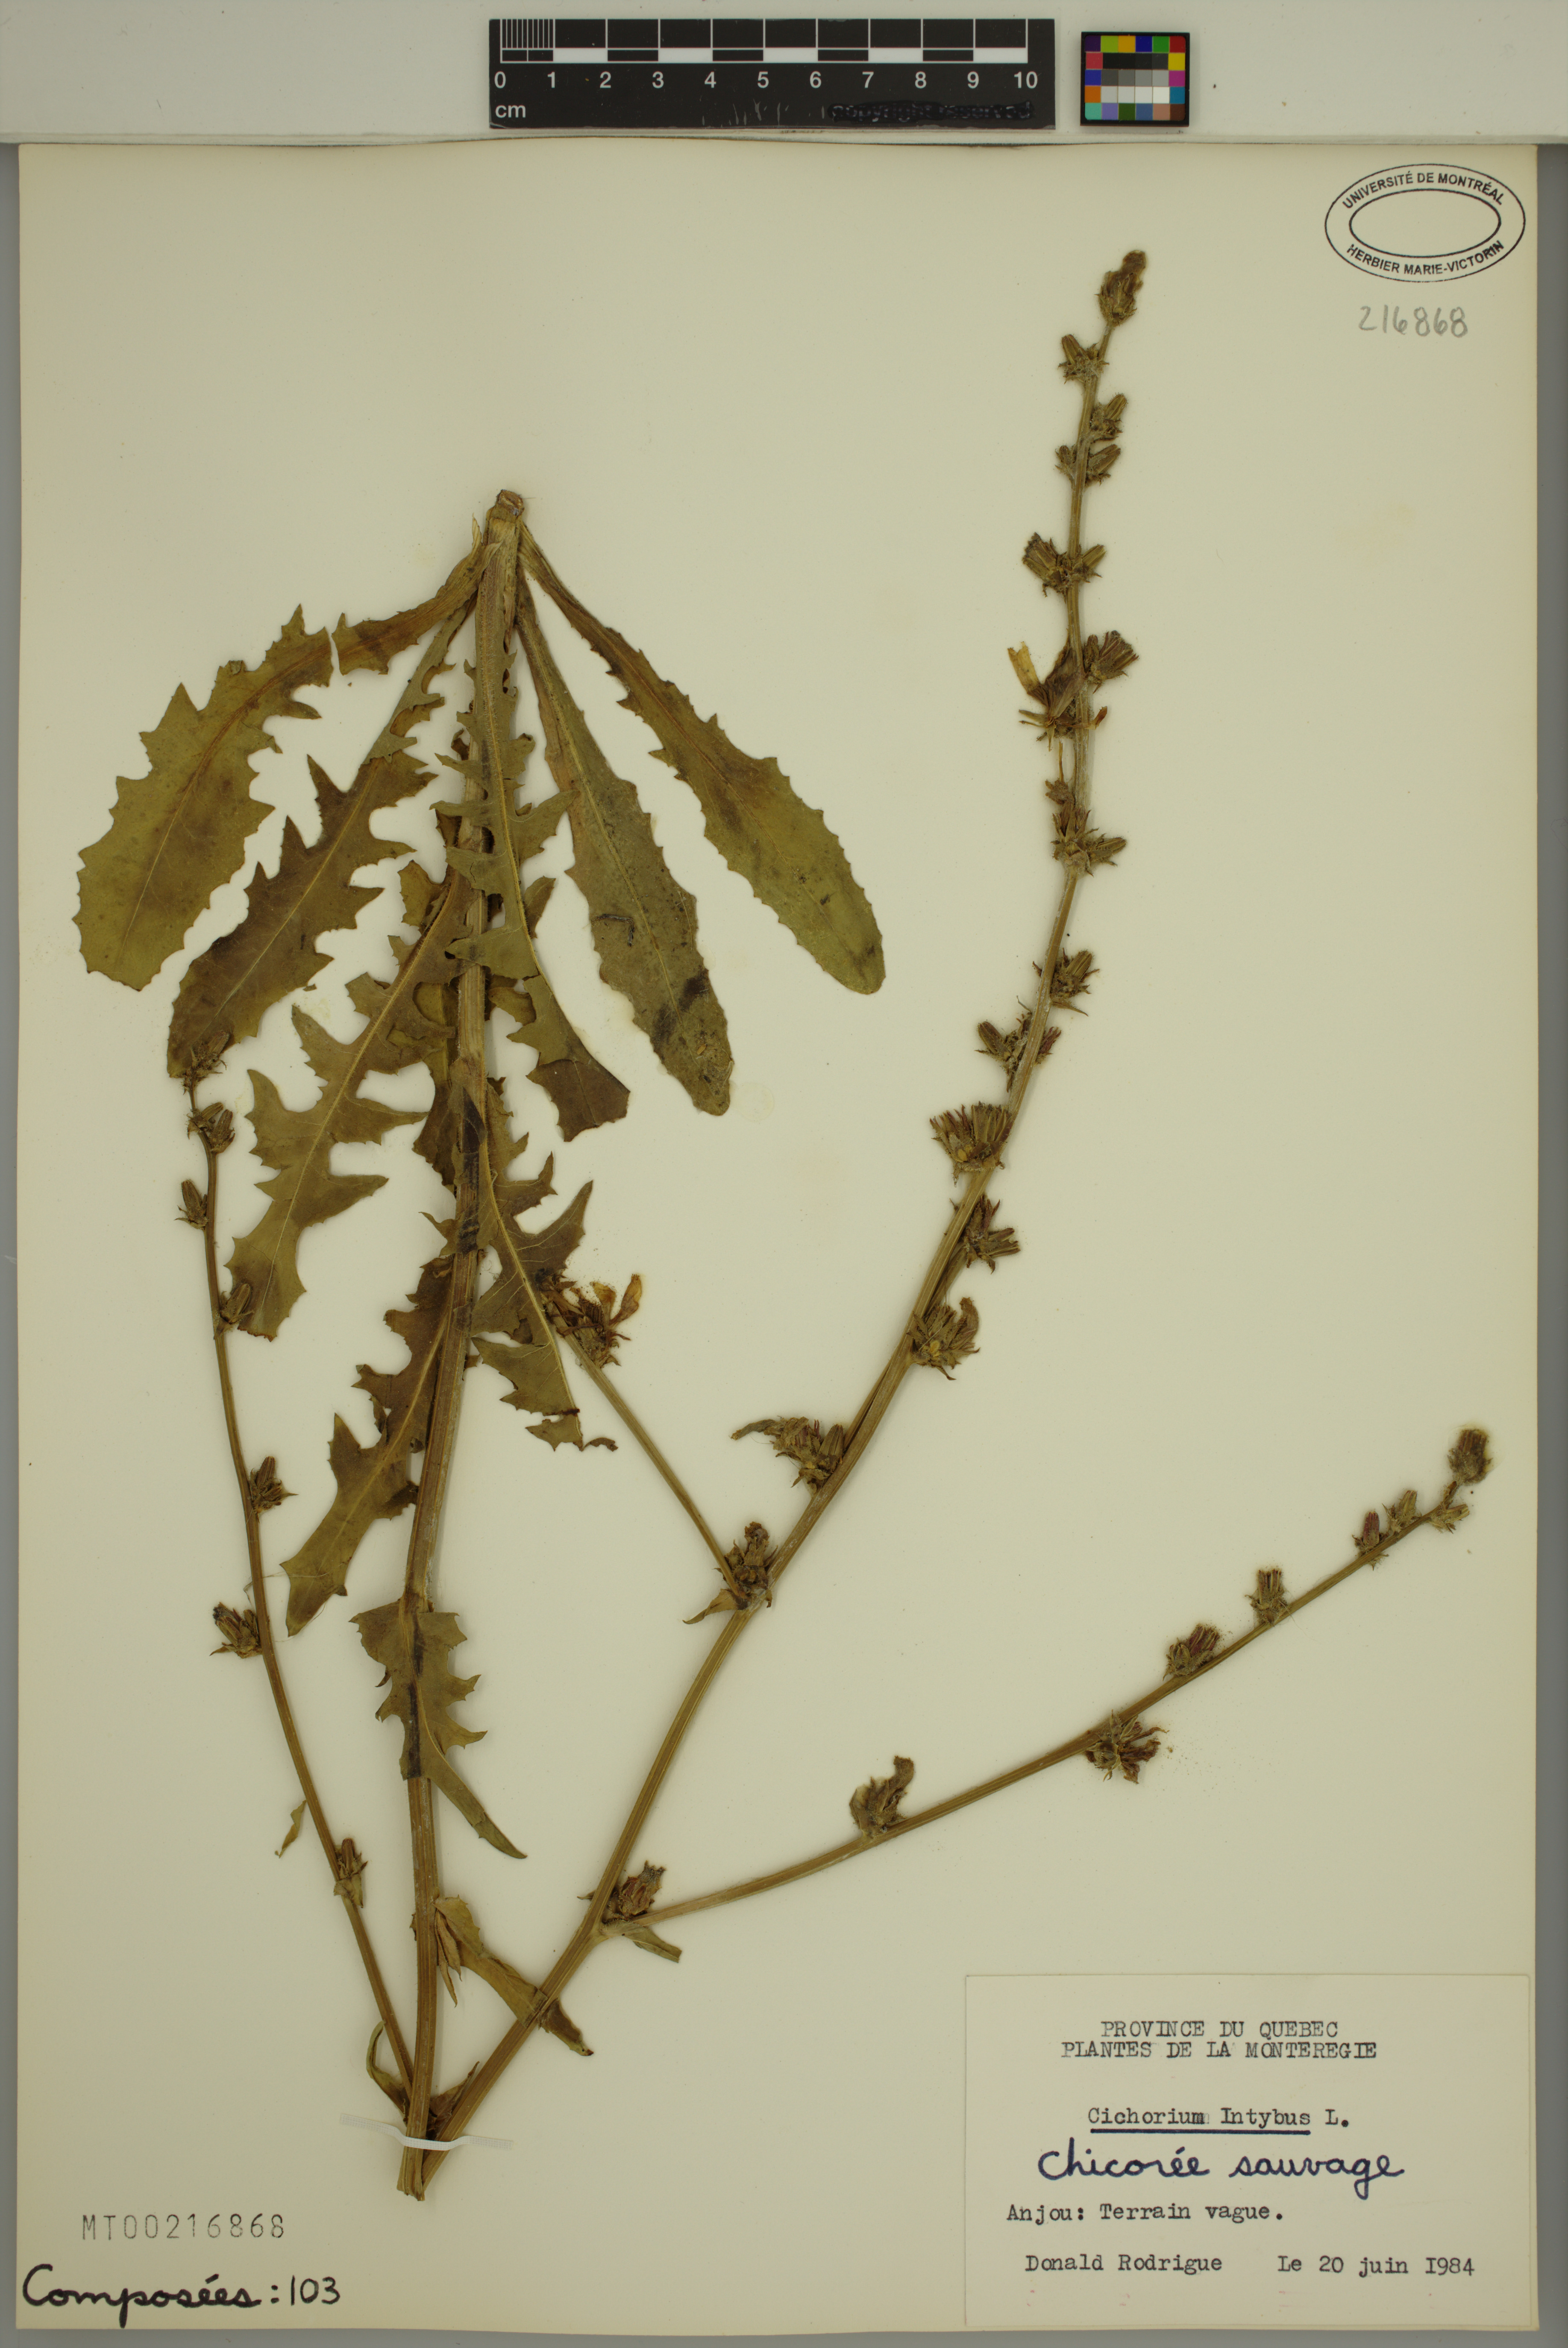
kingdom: Plantae
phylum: Tracheophyta
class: Magnoliopsida
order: Asterales
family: Asteraceae
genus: Cichorium
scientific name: Cichorium intybus
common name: Chicory
